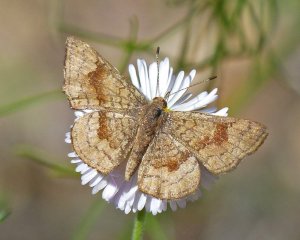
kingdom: Animalia
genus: Calephelis
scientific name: Calephelis nemesis
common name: Fatal Metalmark
